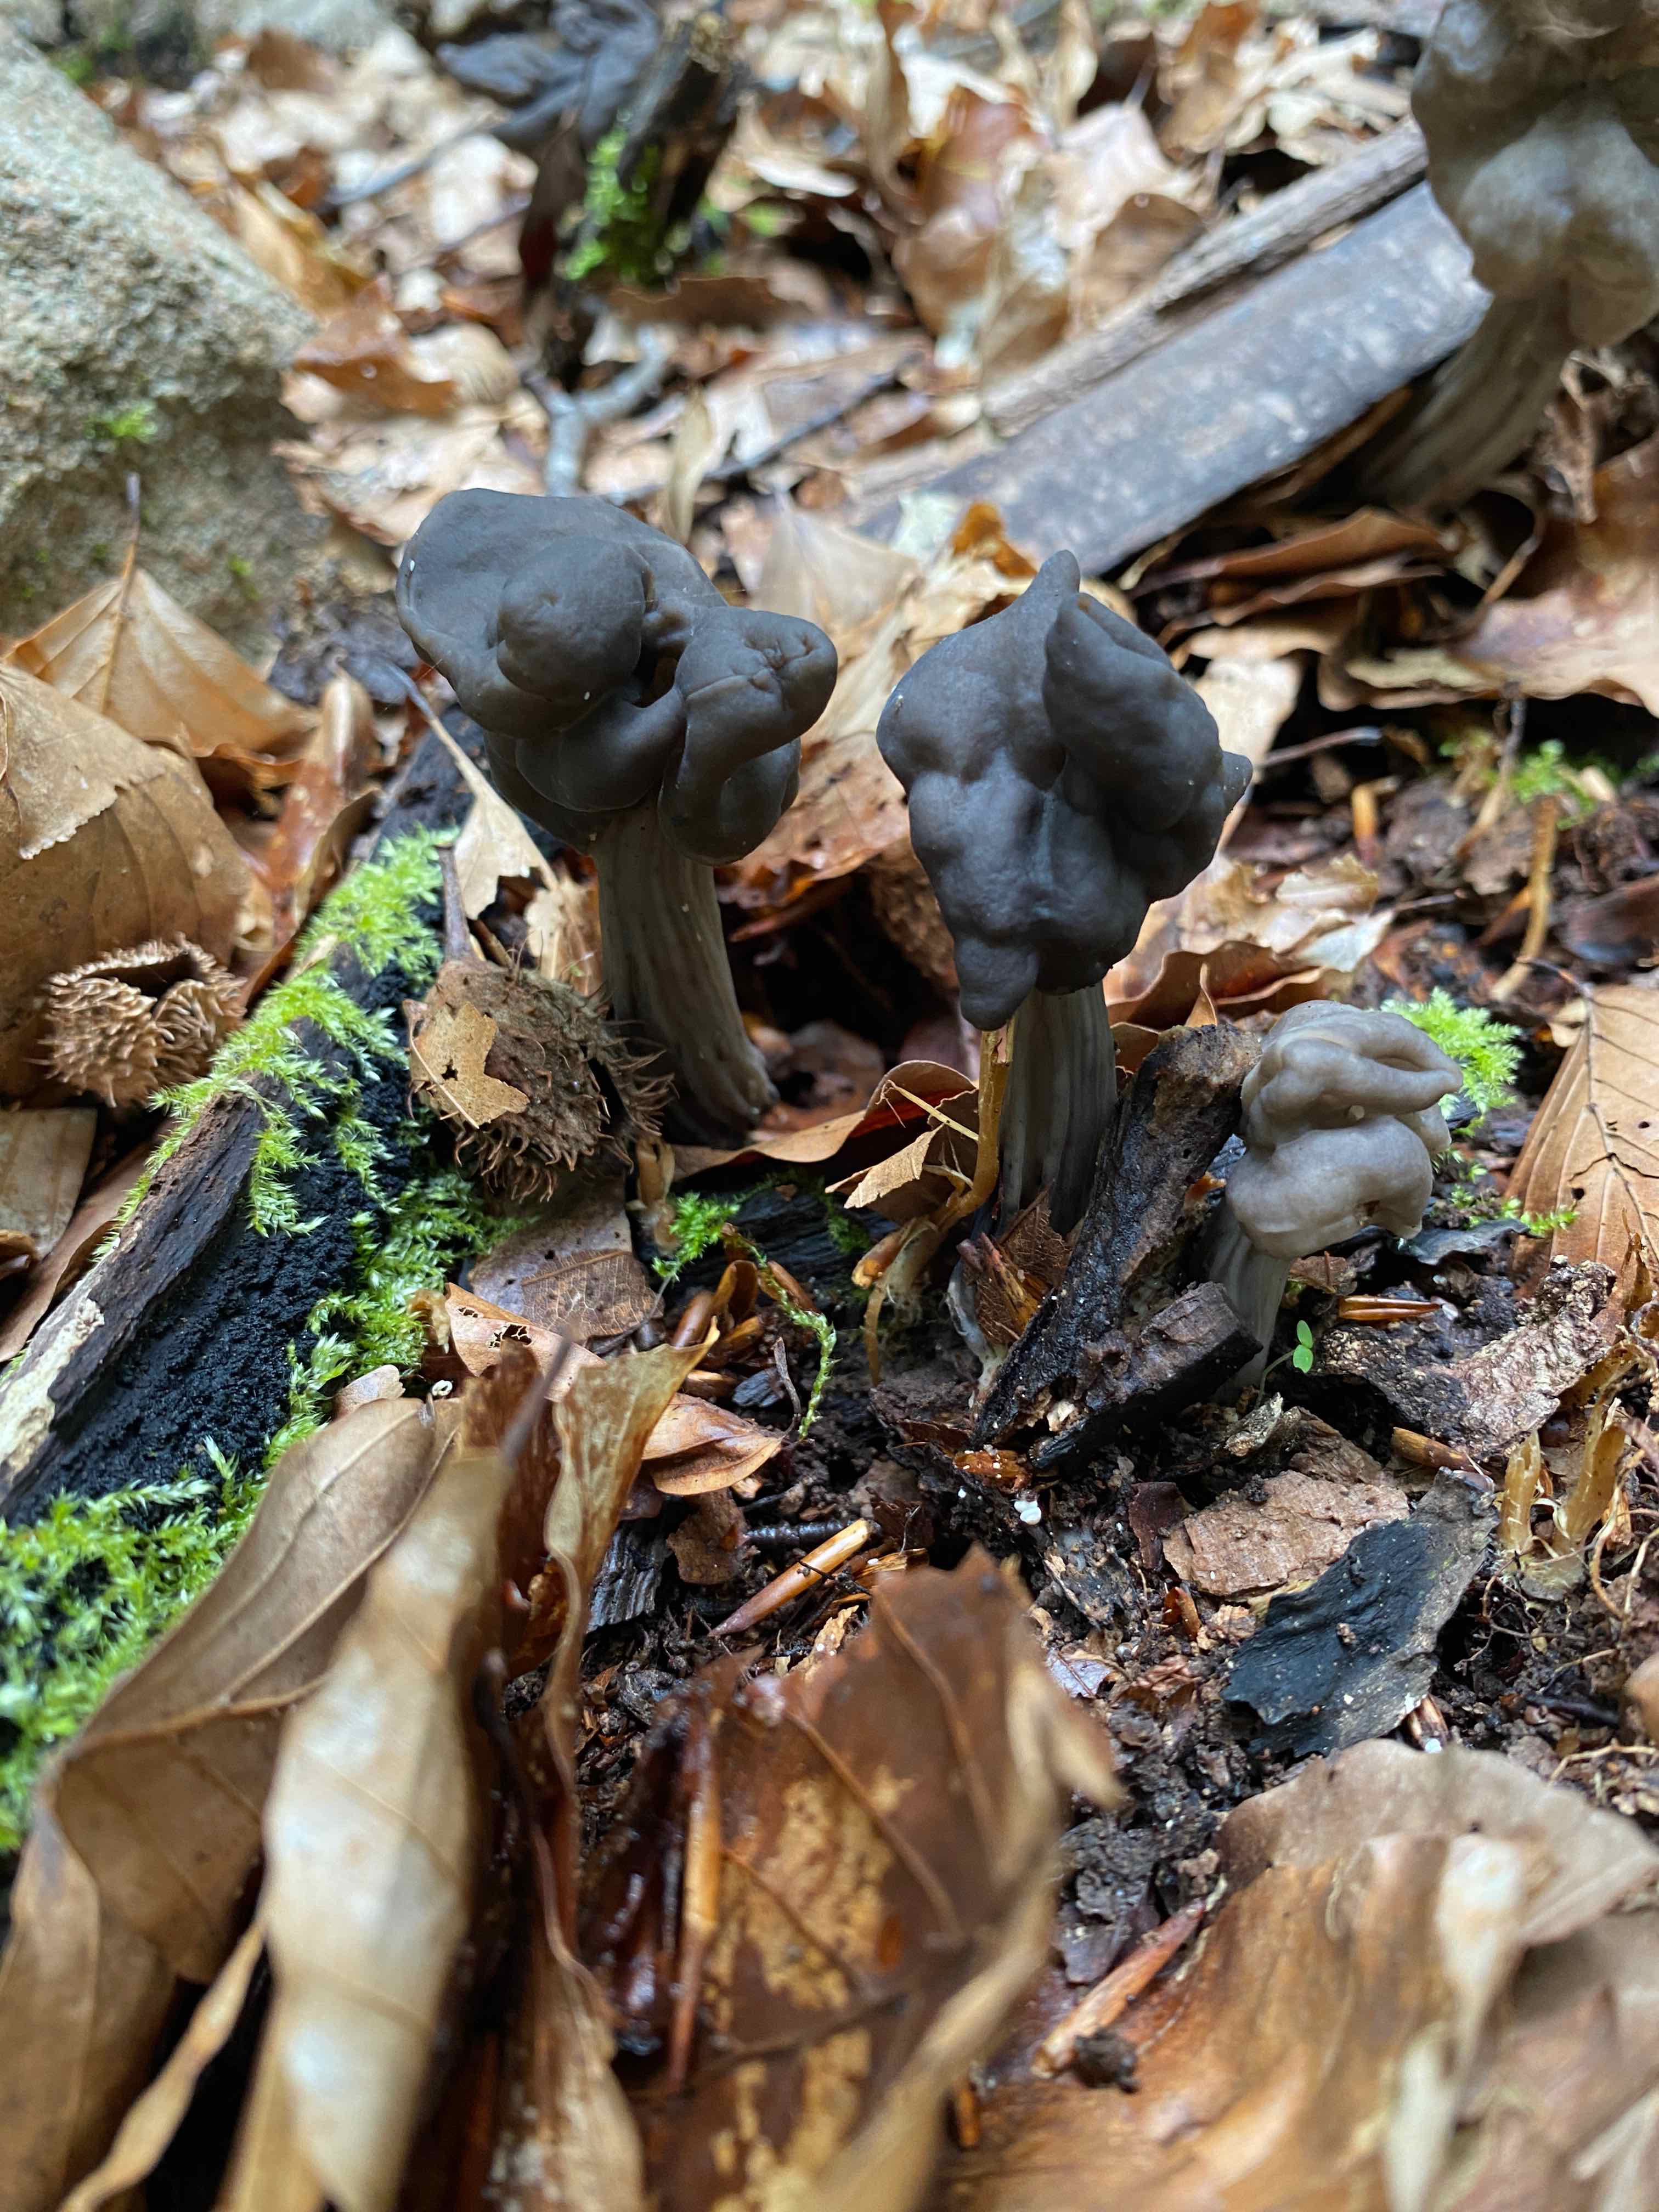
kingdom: Fungi
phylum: Ascomycota
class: Pezizomycetes
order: Pezizales
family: Helvellaceae
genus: Helvella
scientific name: Helvella lacunosa
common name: grubet foldhat
